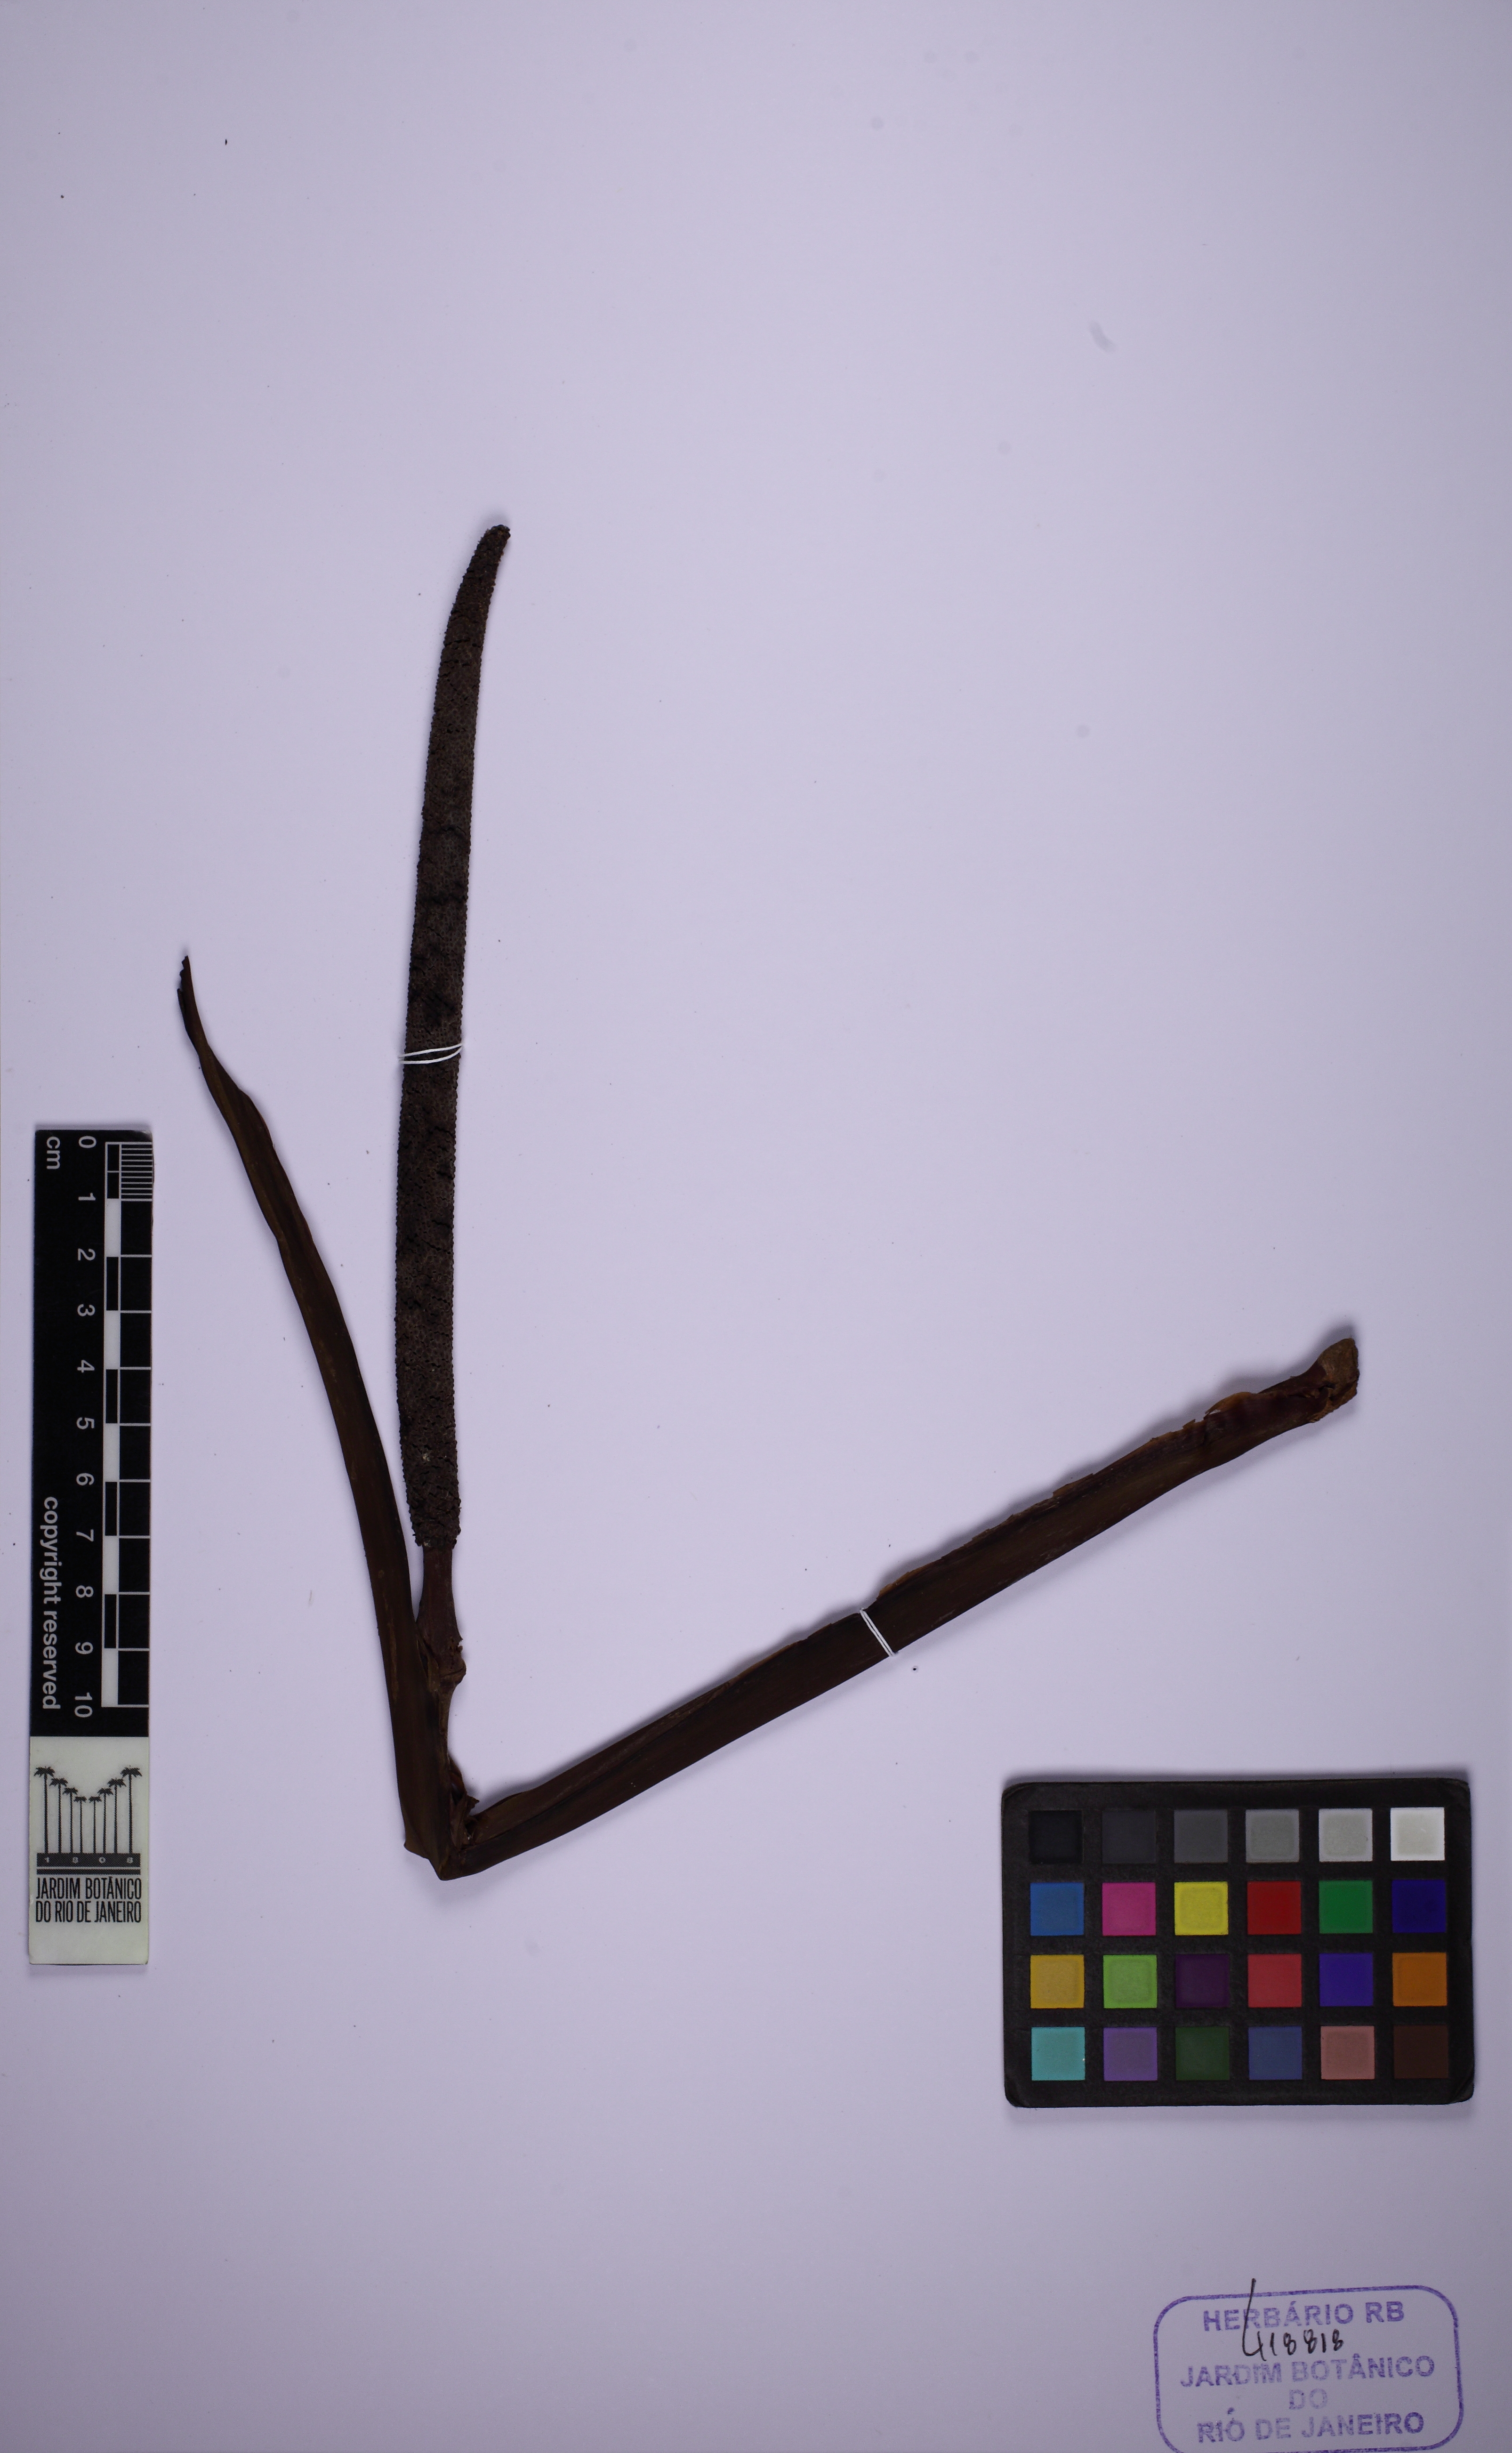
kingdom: Plantae
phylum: Tracheophyta
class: Liliopsida
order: Alismatales
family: Araceae
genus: Rhodospatha
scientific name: Rhodospatha latifolia
